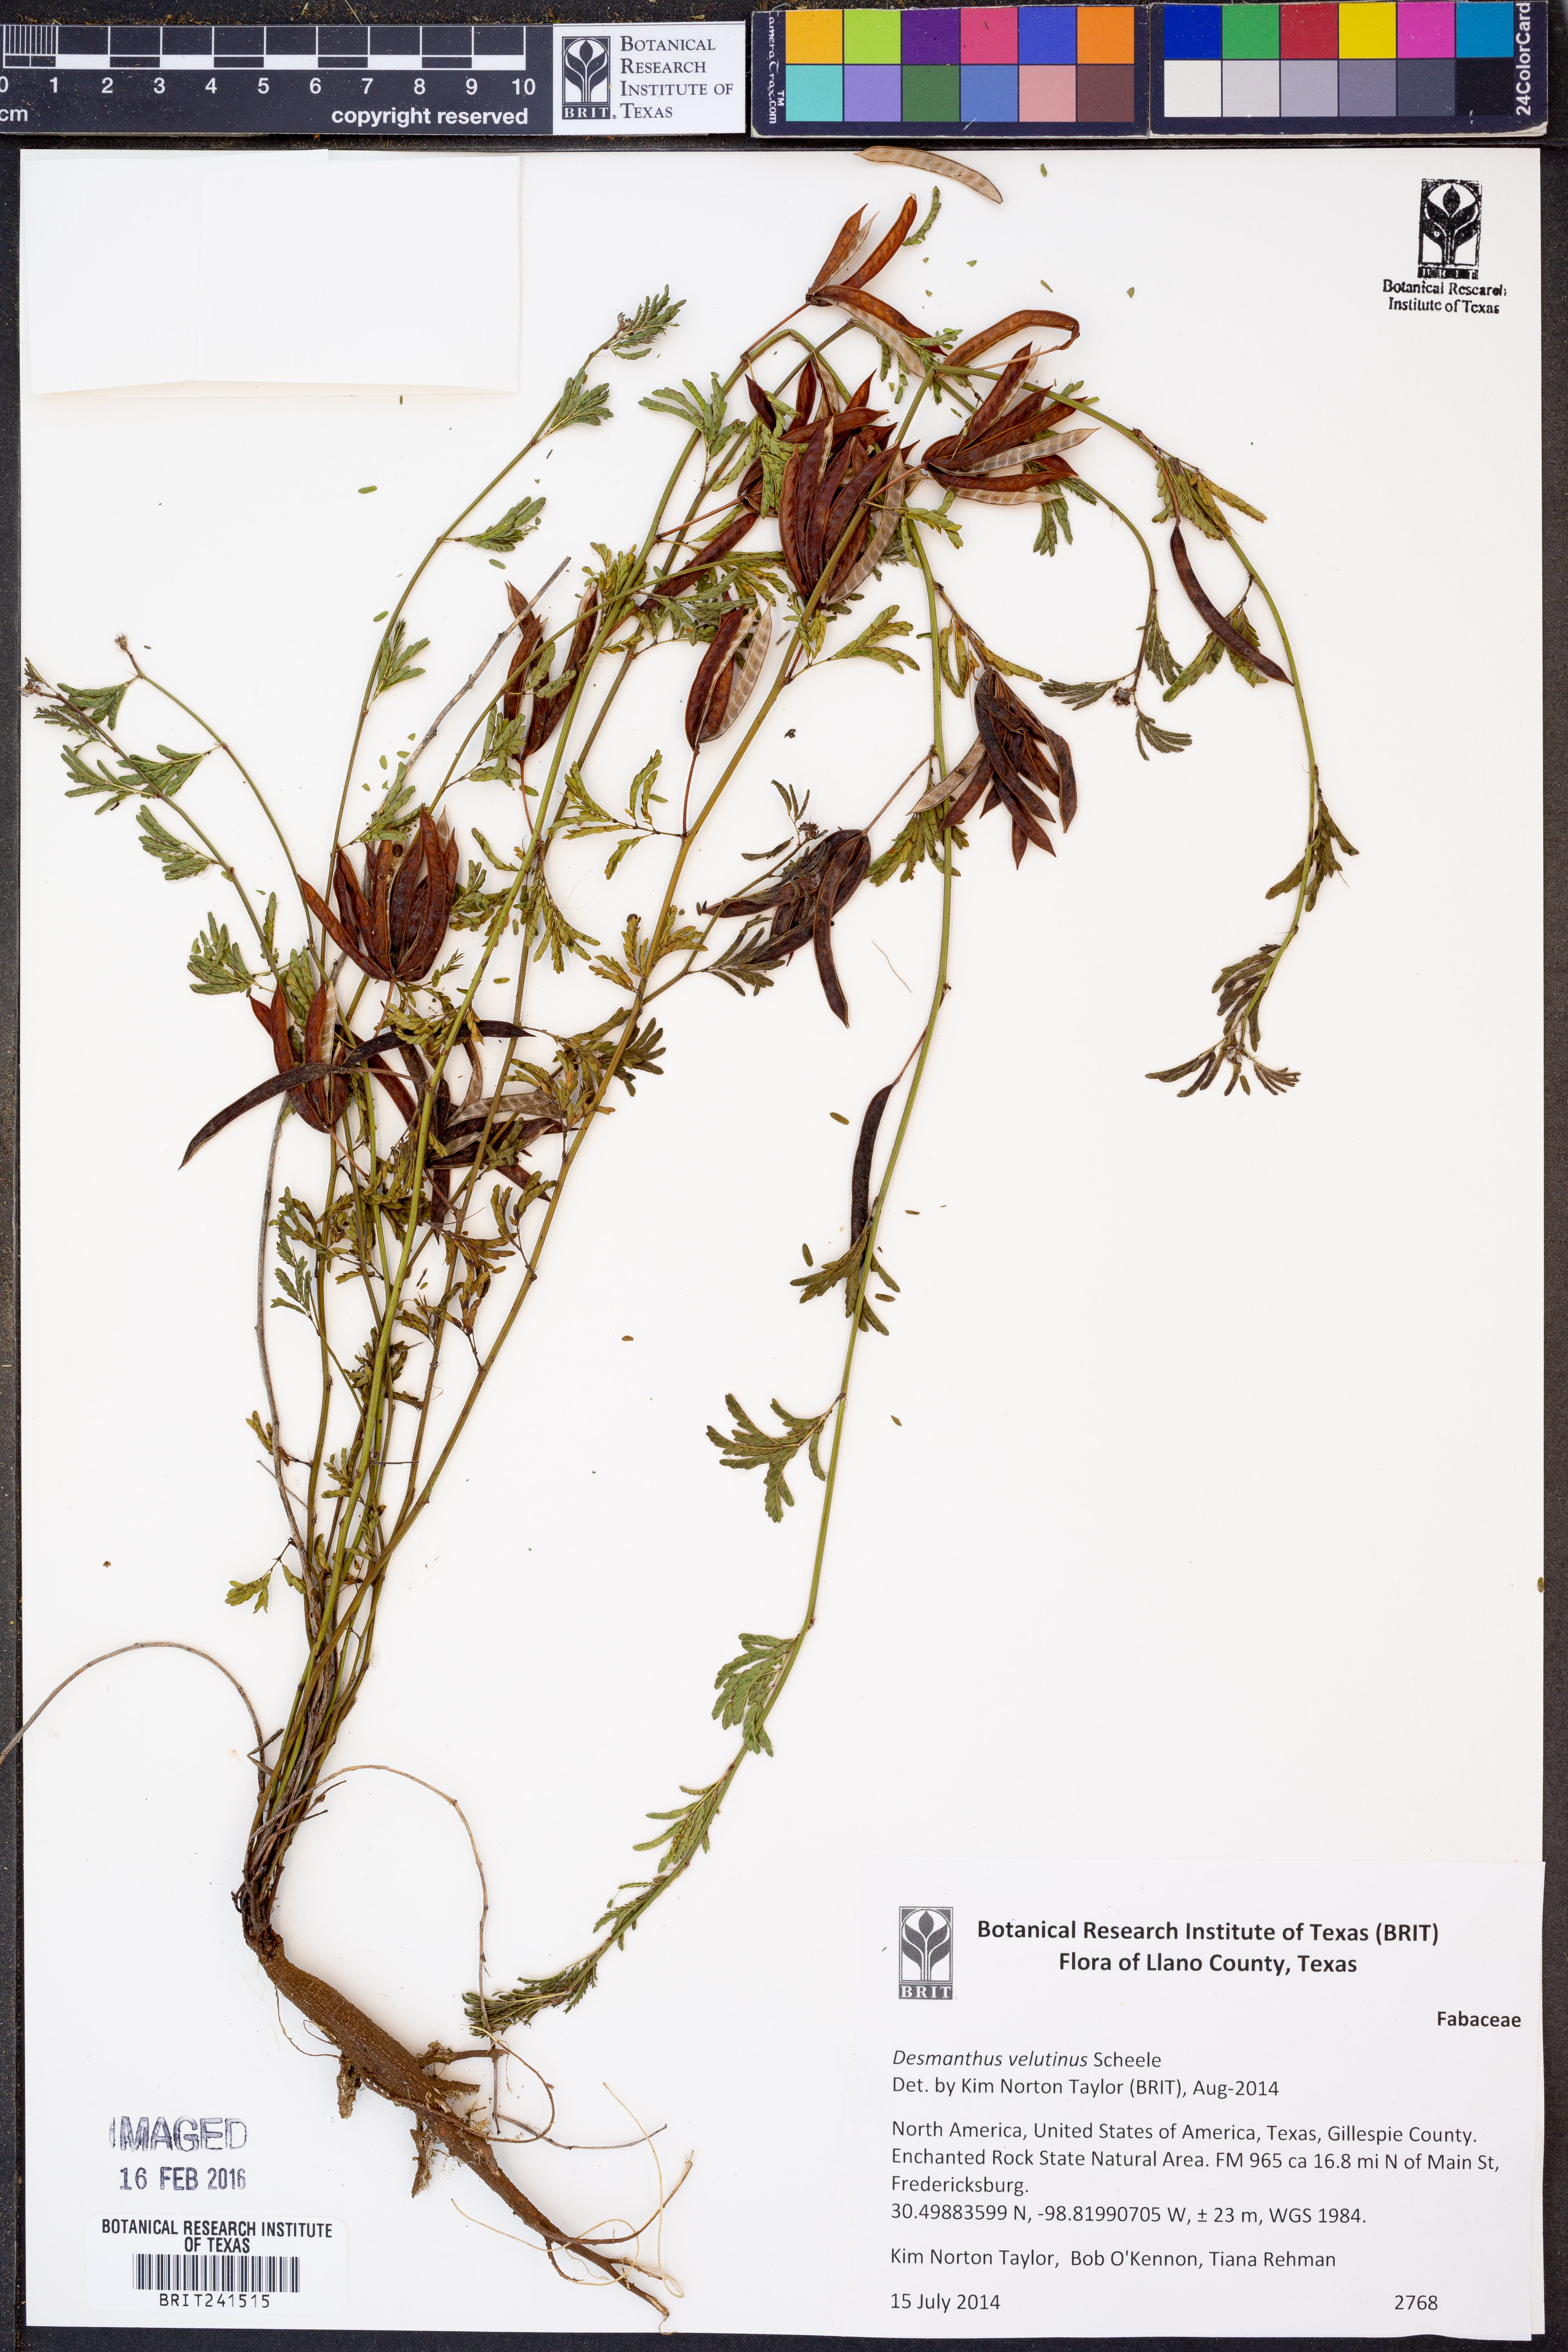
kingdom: Plantae
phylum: Tracheophyta
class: Magnoliopsida
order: Fabales
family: Fabaceae
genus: Desmanthus
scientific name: Desmanthus velutinus
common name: Velvet bundle-flower
